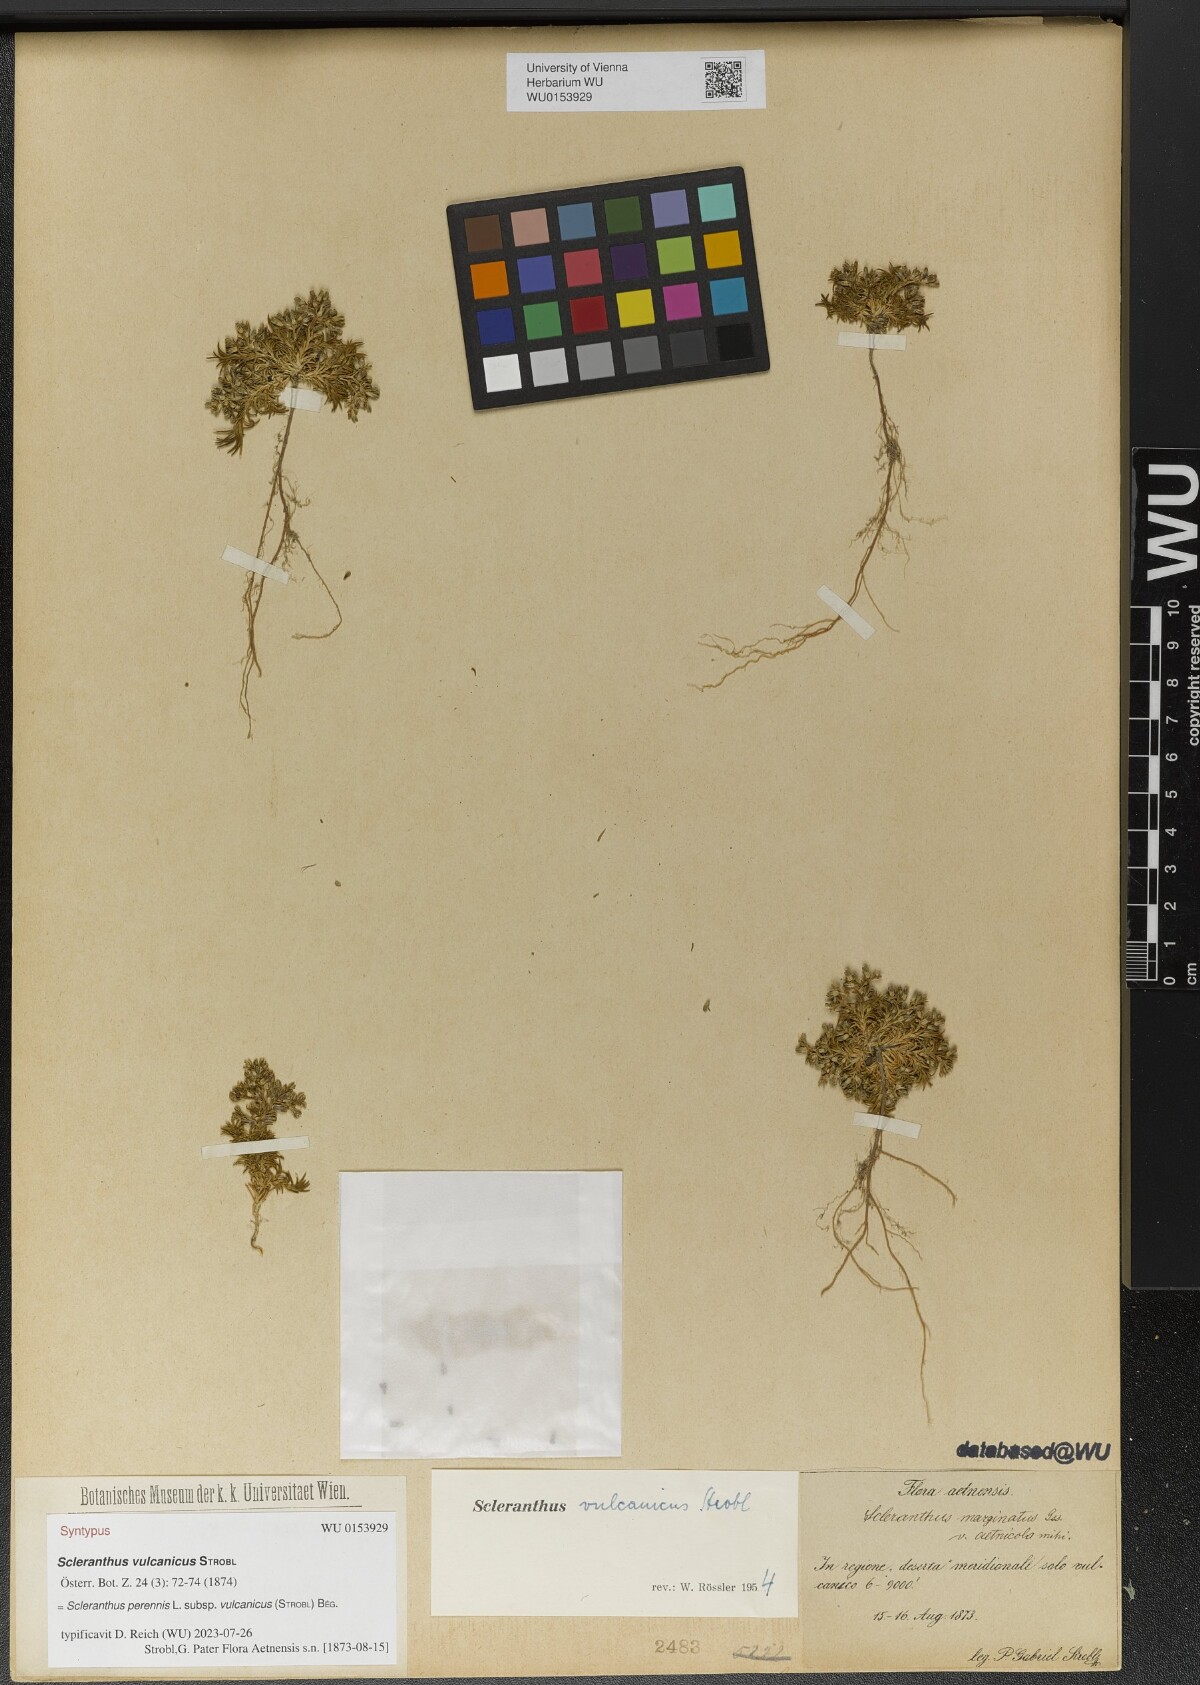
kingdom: Plantae
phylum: Tracheophyta
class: Magnoliopsida
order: Caryophyllales
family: Caryophyllaceae
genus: Scleranthus
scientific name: Scleranthus perennis
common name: Perennial knawel
